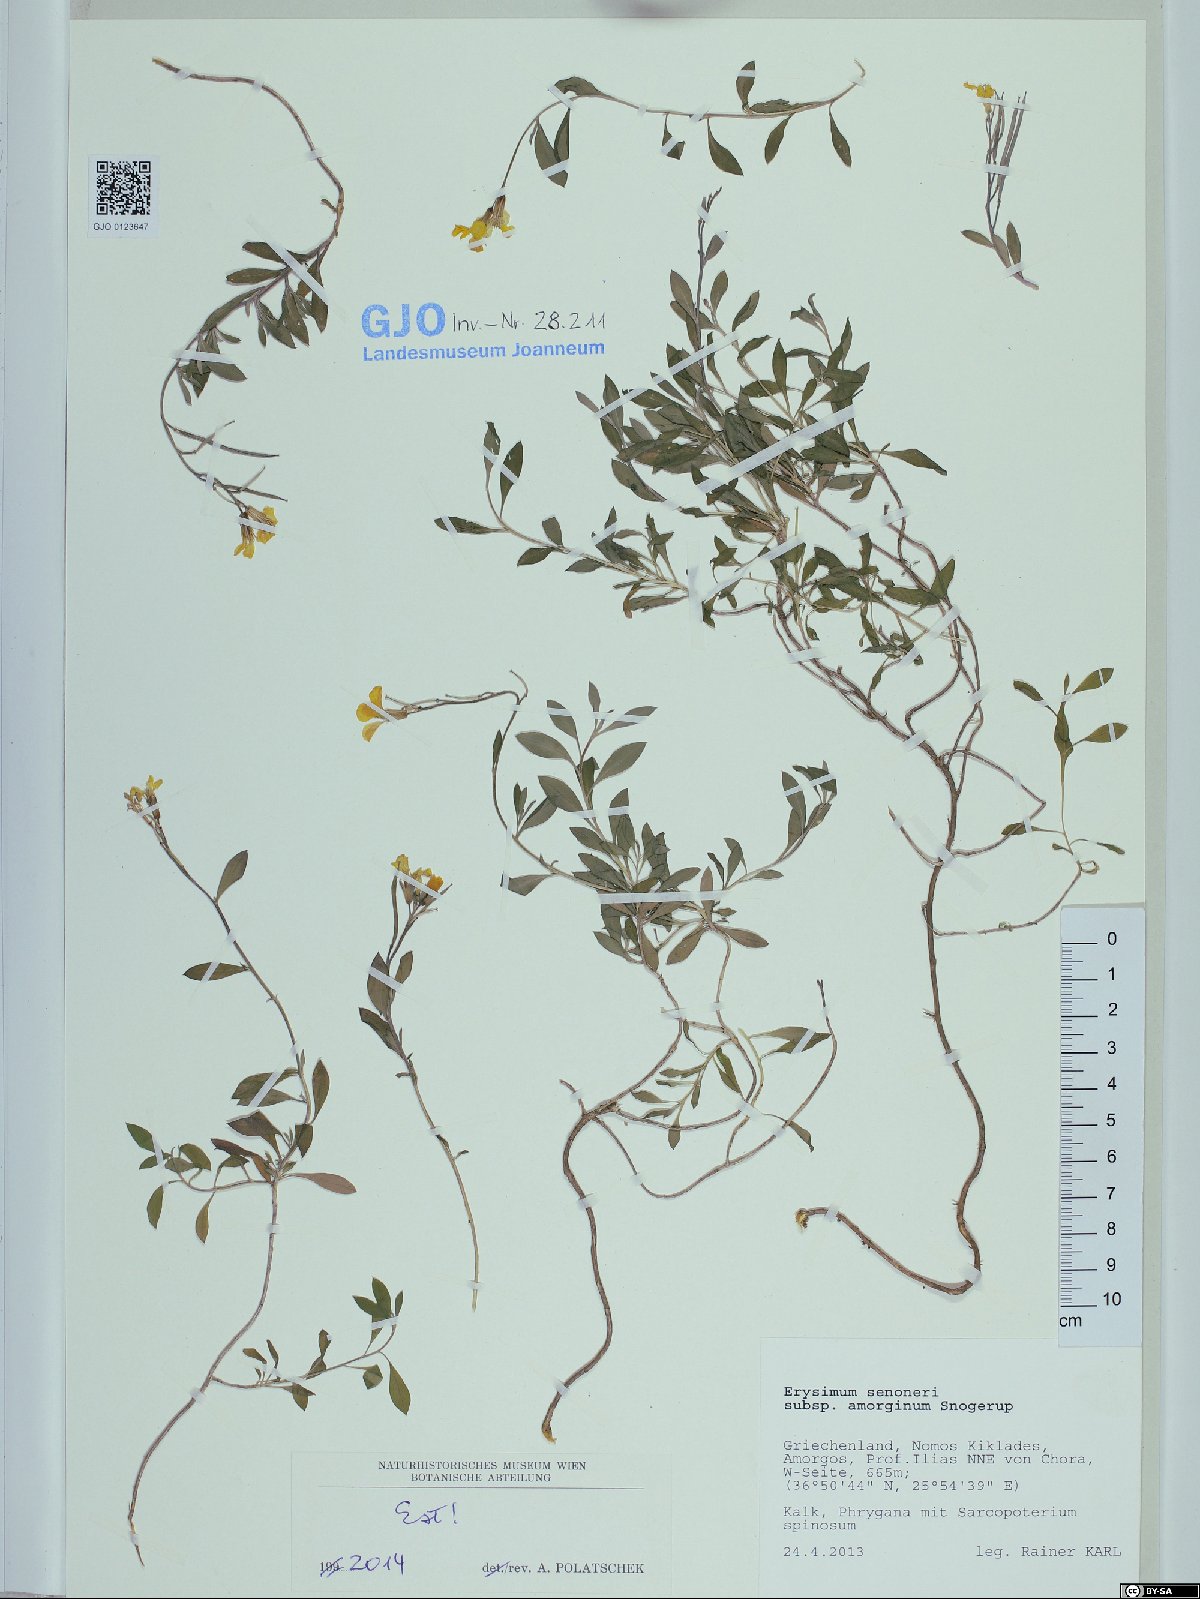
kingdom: Plantae
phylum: Tracheophyta
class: Magnoliopsida
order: Brassicales
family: Brassicaceae
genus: Erysimum
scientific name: Erysimum senoneri
